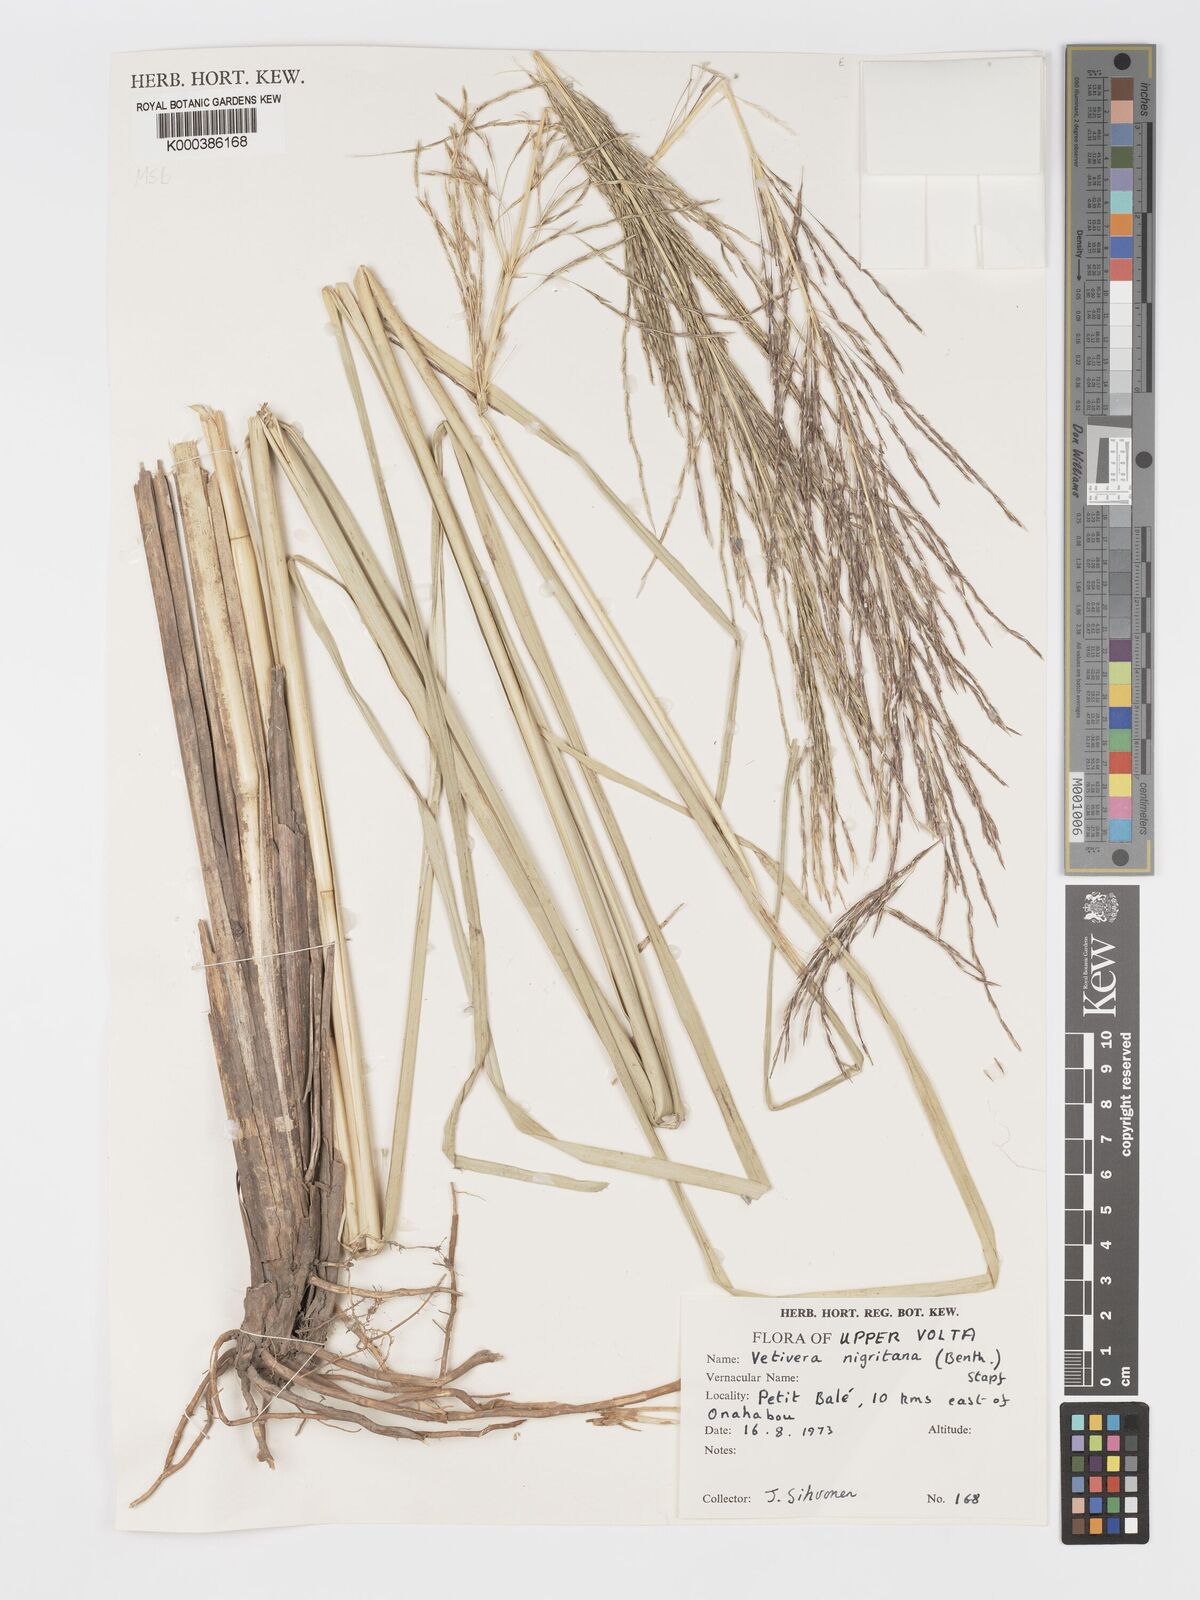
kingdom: Plantae
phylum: Tracheophyta
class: Liliopsida
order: Poales
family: Poaceae
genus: Chrysopogon
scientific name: Chrysopogon nigritanus
